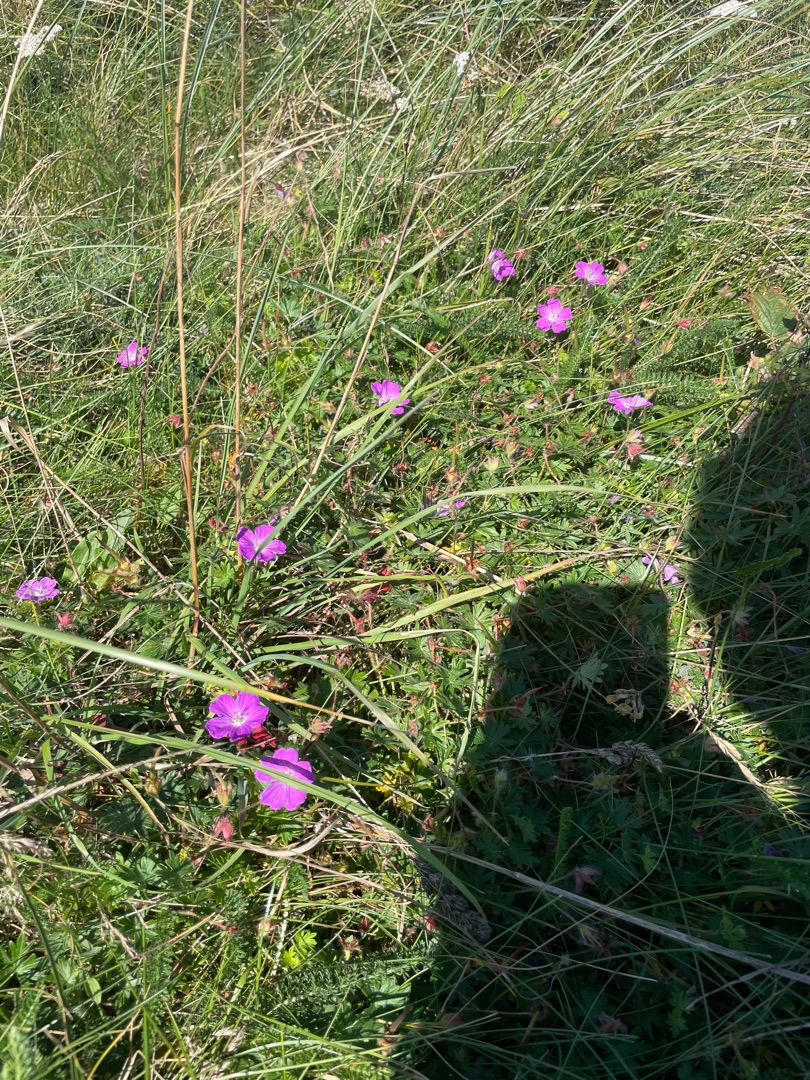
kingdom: Plantae
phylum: Tracheophyta
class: Magnoliopsida
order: Geraniales
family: Geraniaceae
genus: Geranium
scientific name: Geranium sanguineum
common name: Blodrød storkenæb
